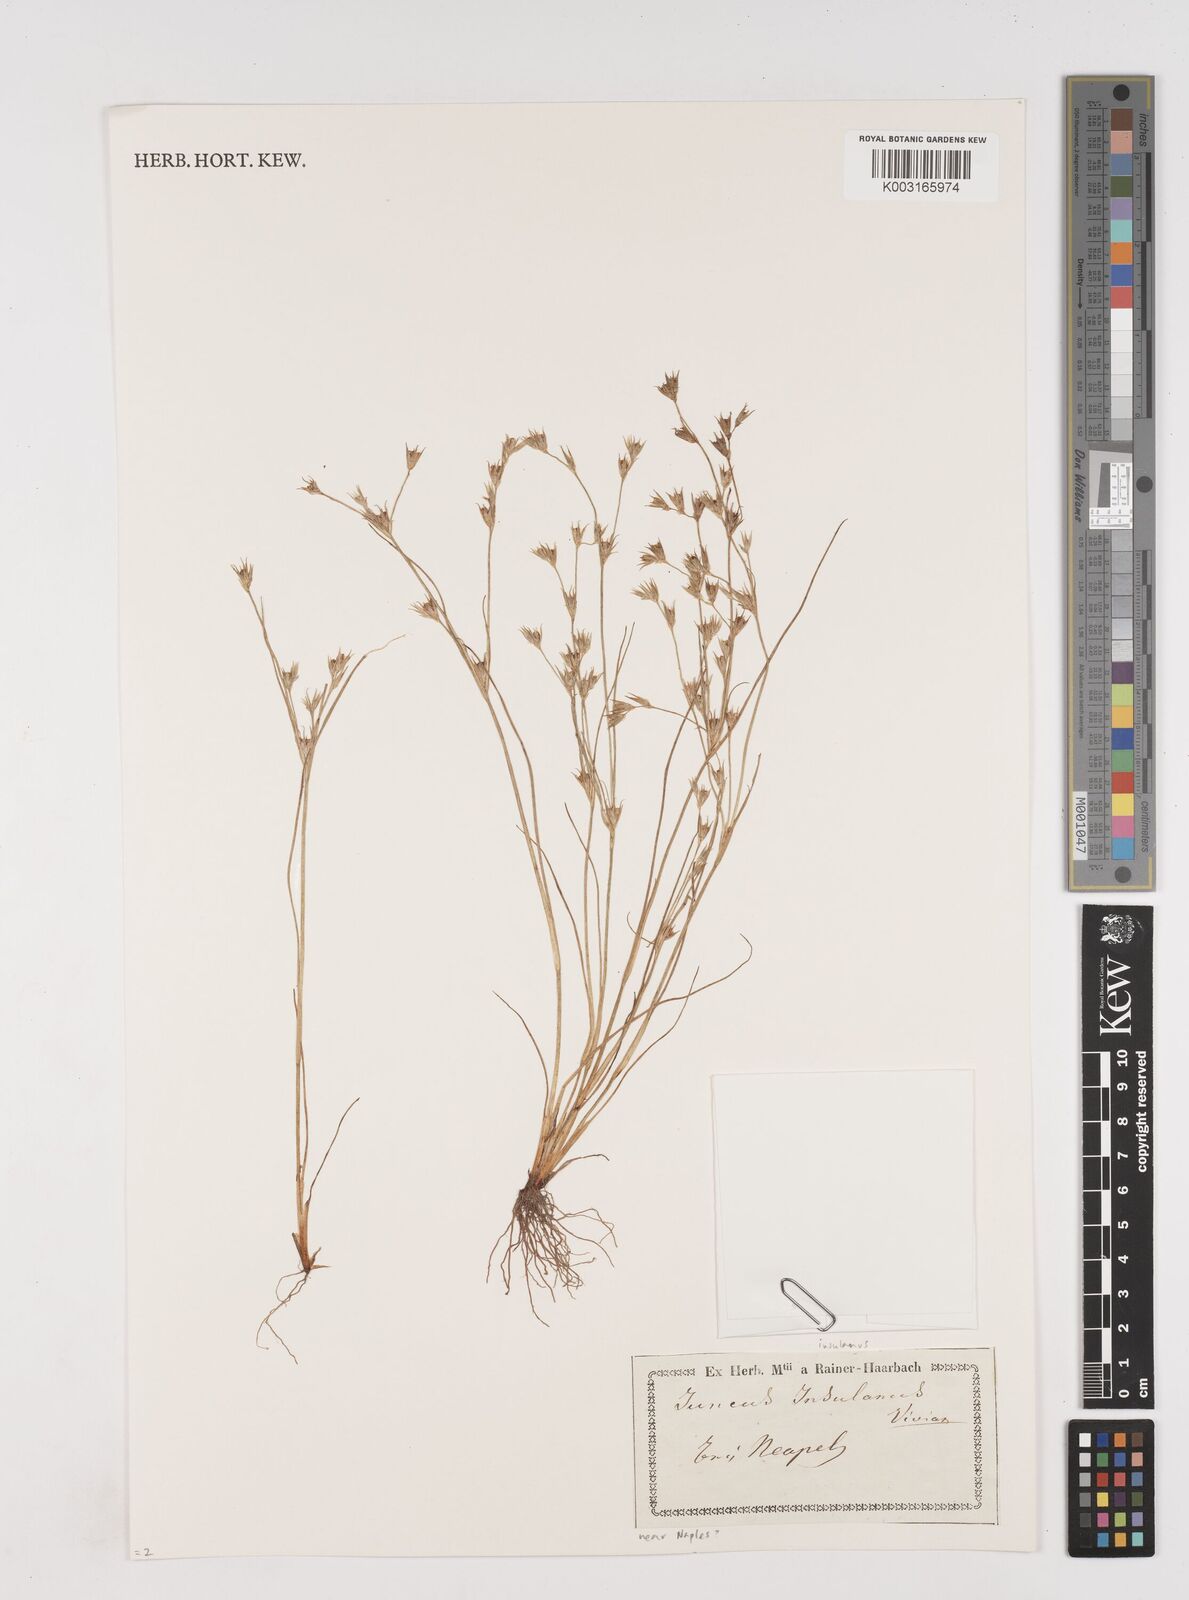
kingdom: Plantae
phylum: Tracheophyta
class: Liliopsida
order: Poales
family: Juncaceae
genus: Juncus
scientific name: Juncus bufonius
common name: Toad rush
